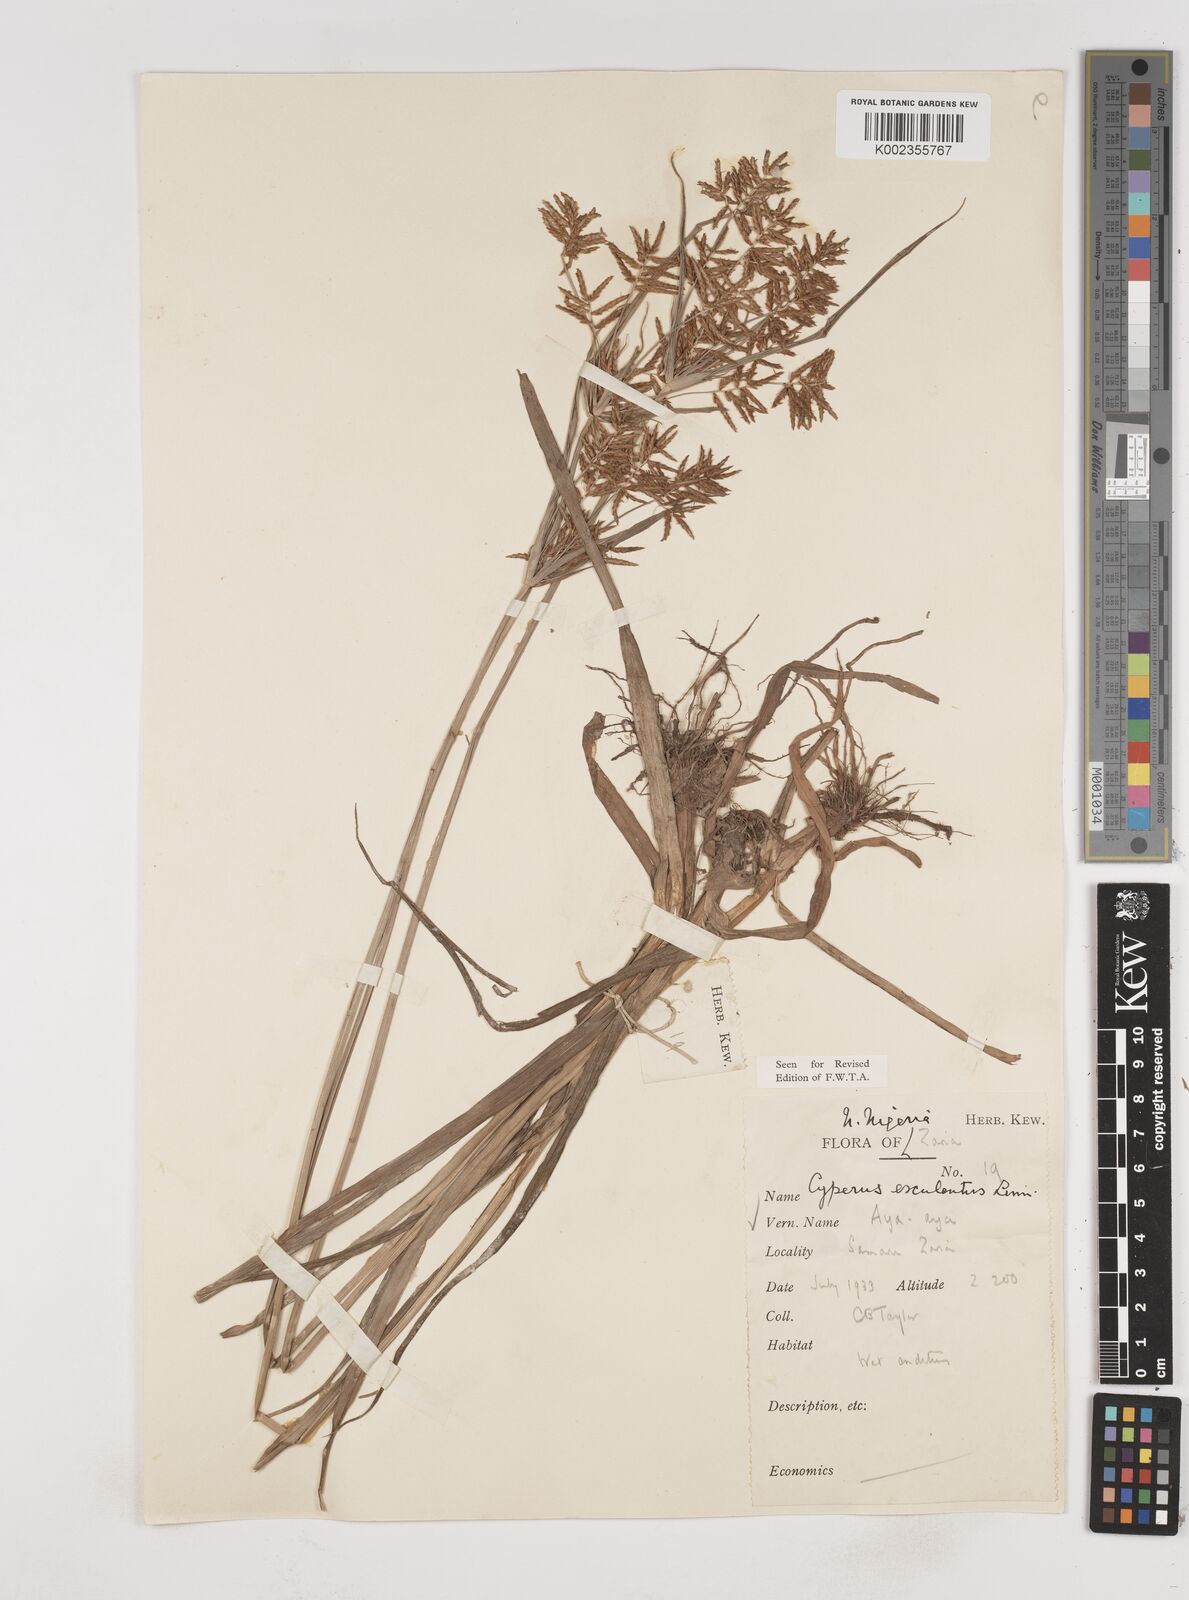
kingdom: Plantae
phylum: Tracheophyta
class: Liliopsida
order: Poales
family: Cyperaceae
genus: Cyperus
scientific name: Cyperus esculentus
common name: Yellow nutsedge
